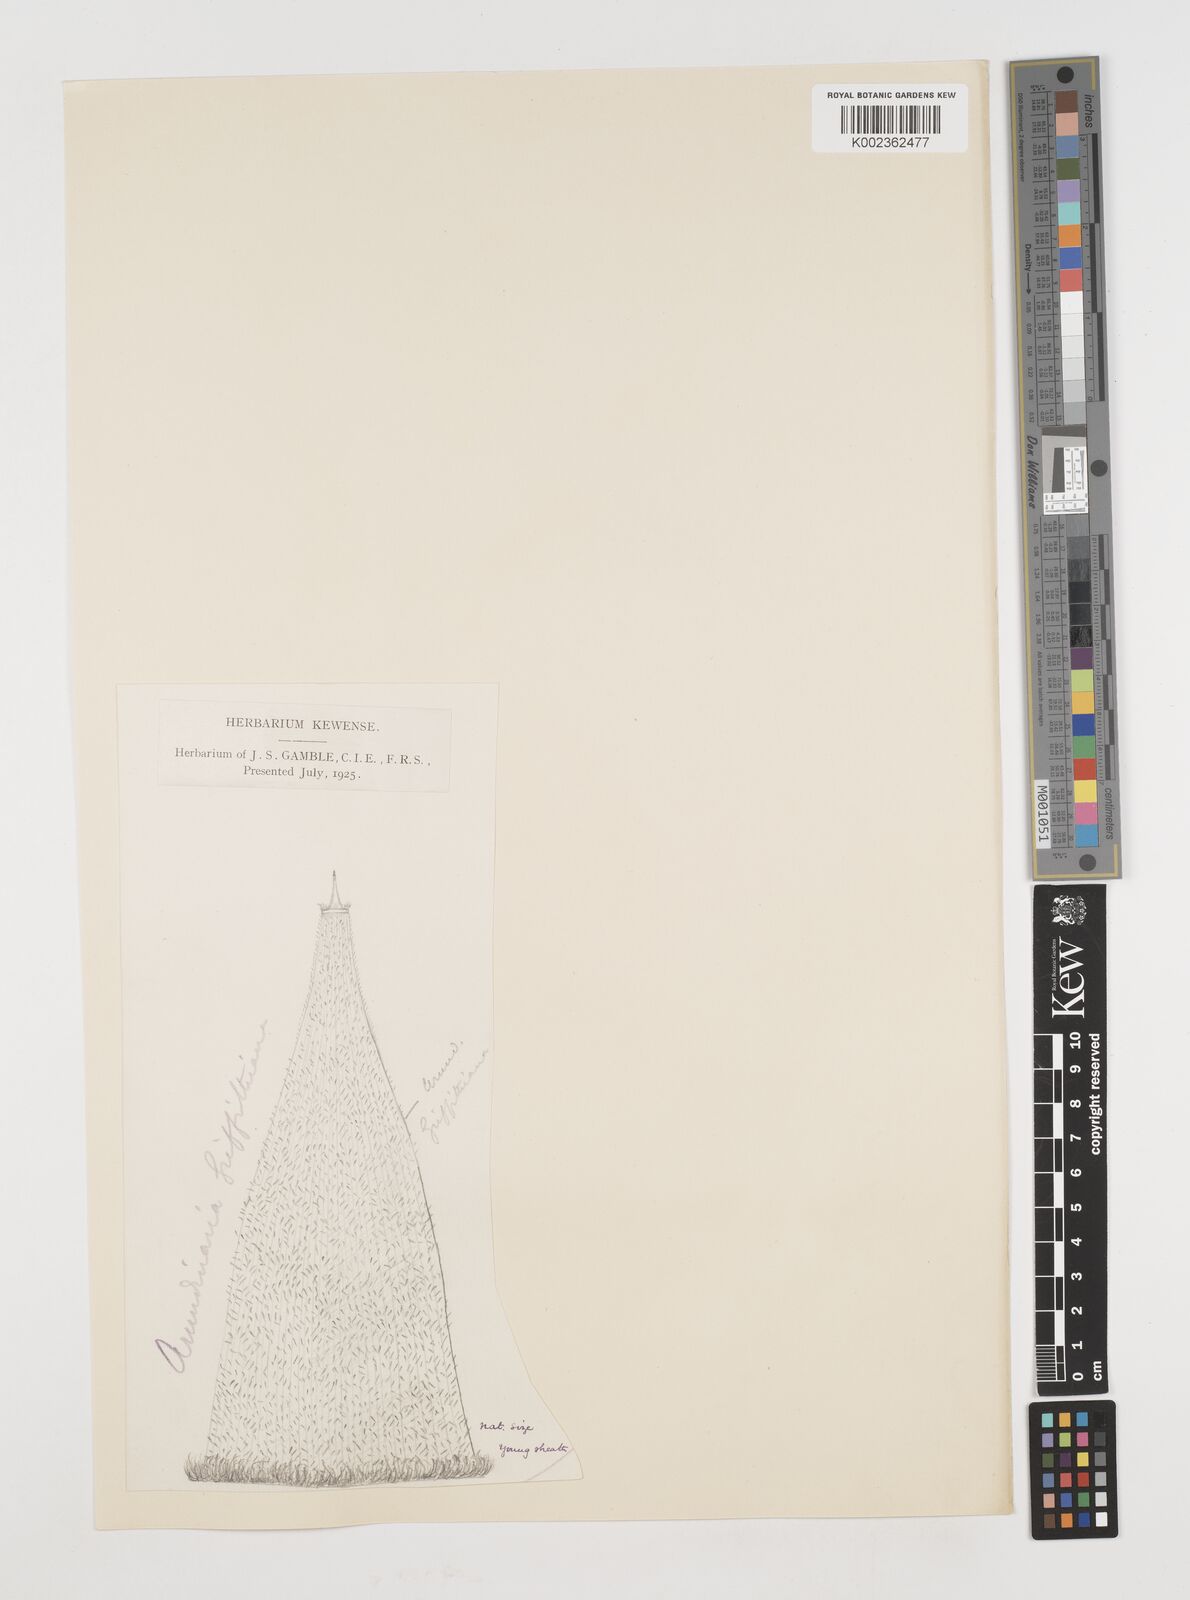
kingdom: Plantae
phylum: Tracheophyta
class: Liliopsida
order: Poales
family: Poaceae
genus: Chimonocalamus
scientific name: Chimonocalamus griffithianus
